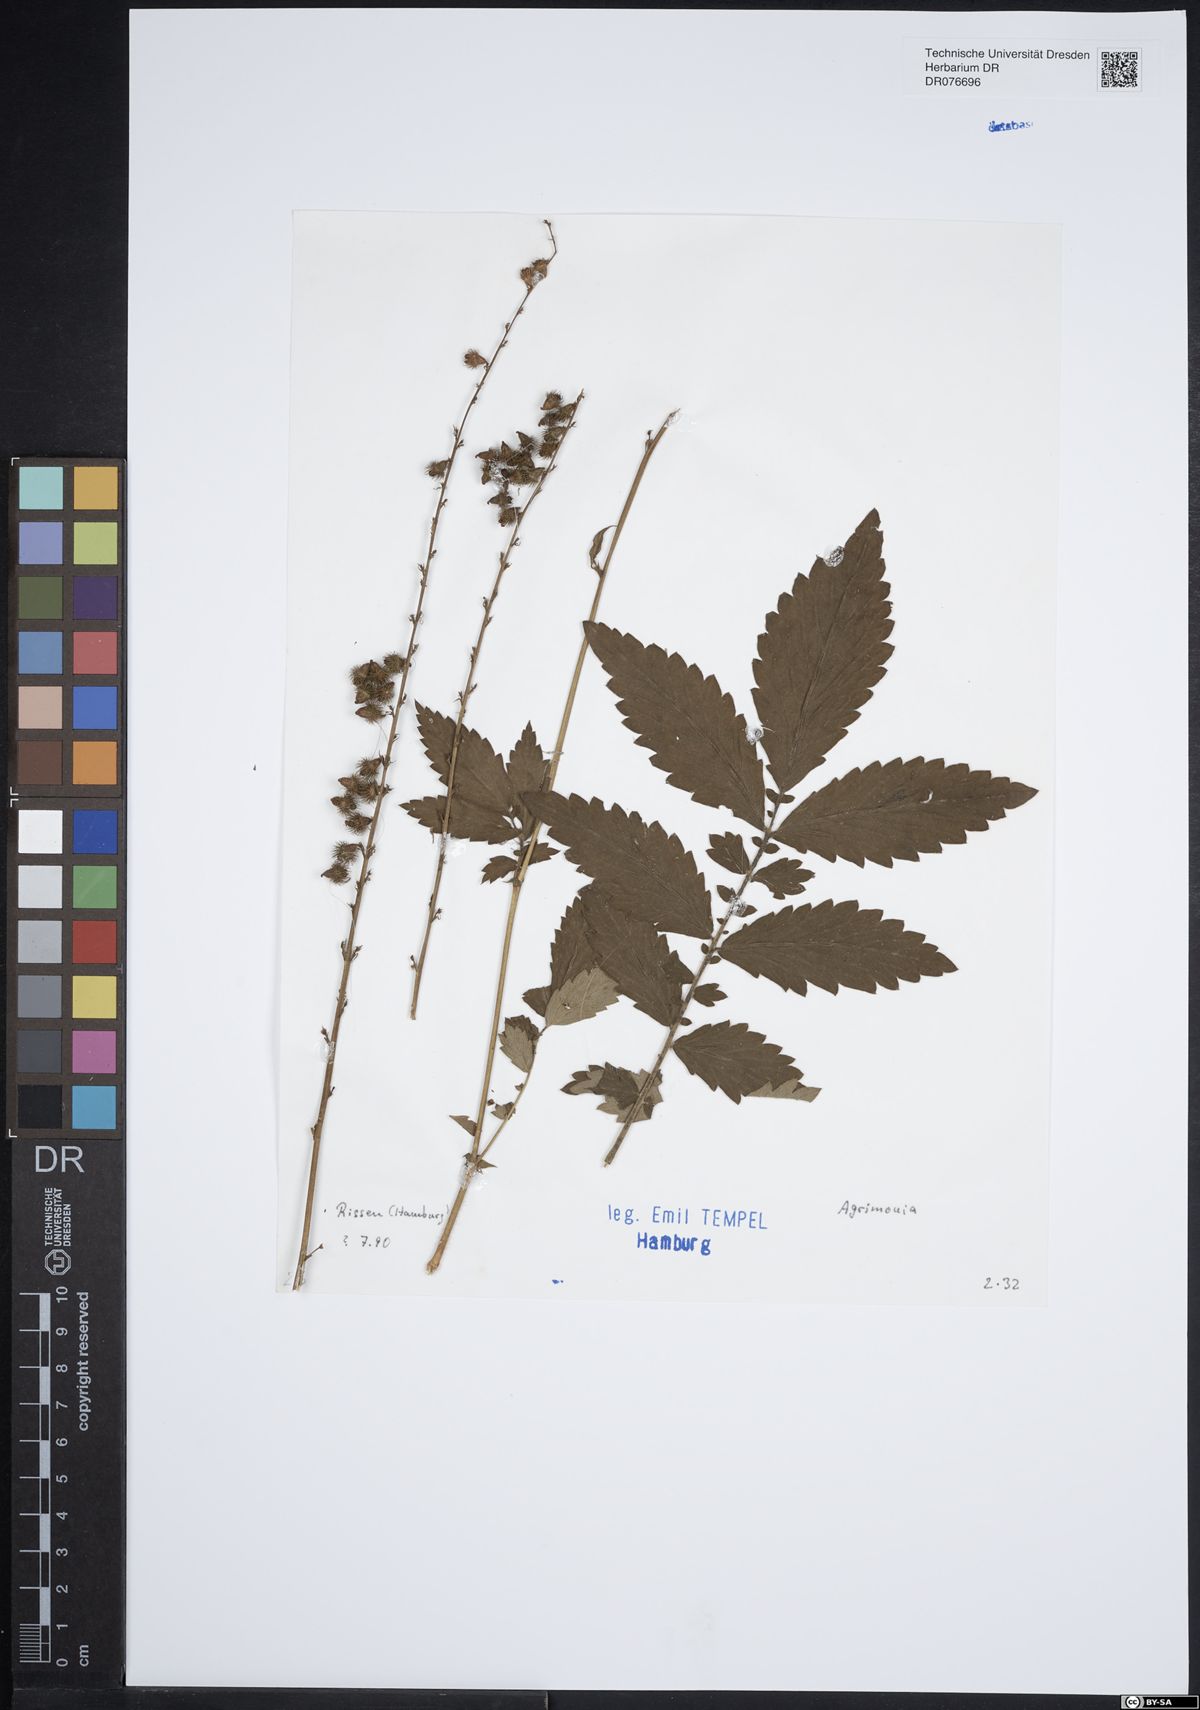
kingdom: Plantae
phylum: Tracheophyta
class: Magnoliopsida
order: Rosales
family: Rosaceae
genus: Agrimonia
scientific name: Agrimonia
